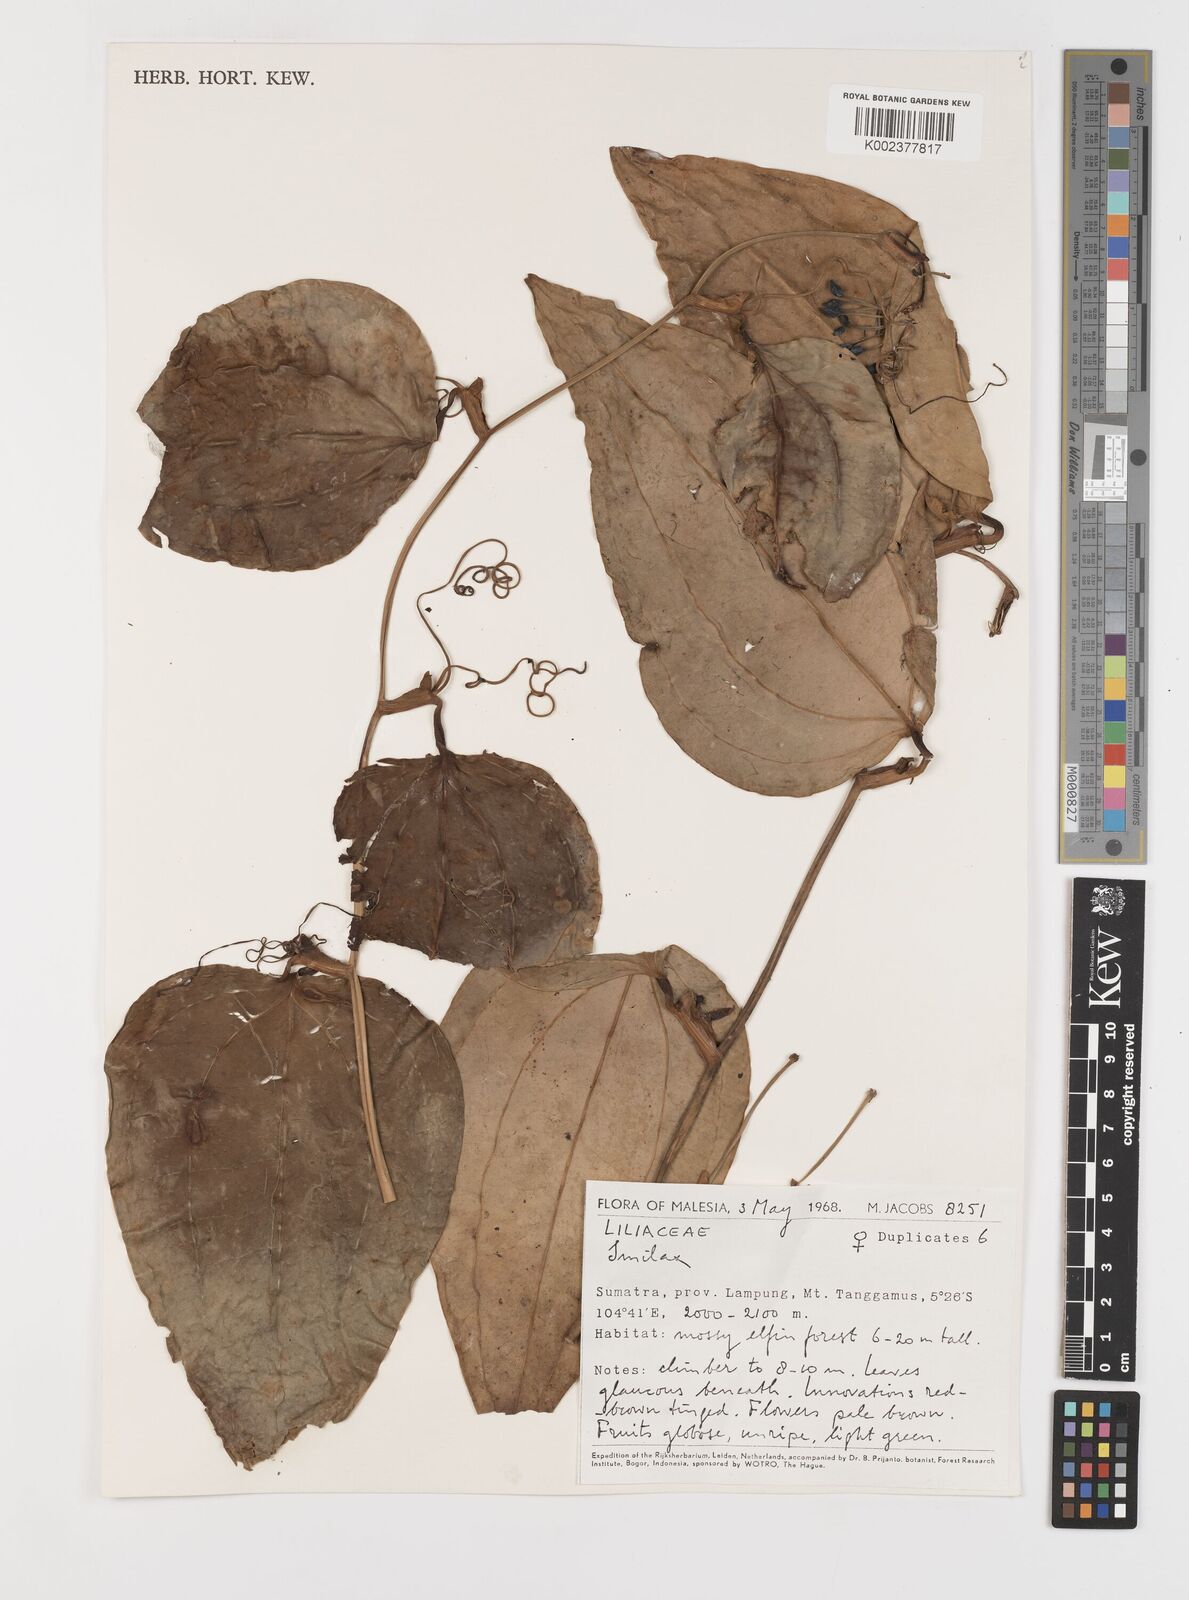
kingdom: Plantae
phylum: Tracheophyta
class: Liliopsida
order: Liliales
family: Smilacaceae
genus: Smilax
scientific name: Smilax
